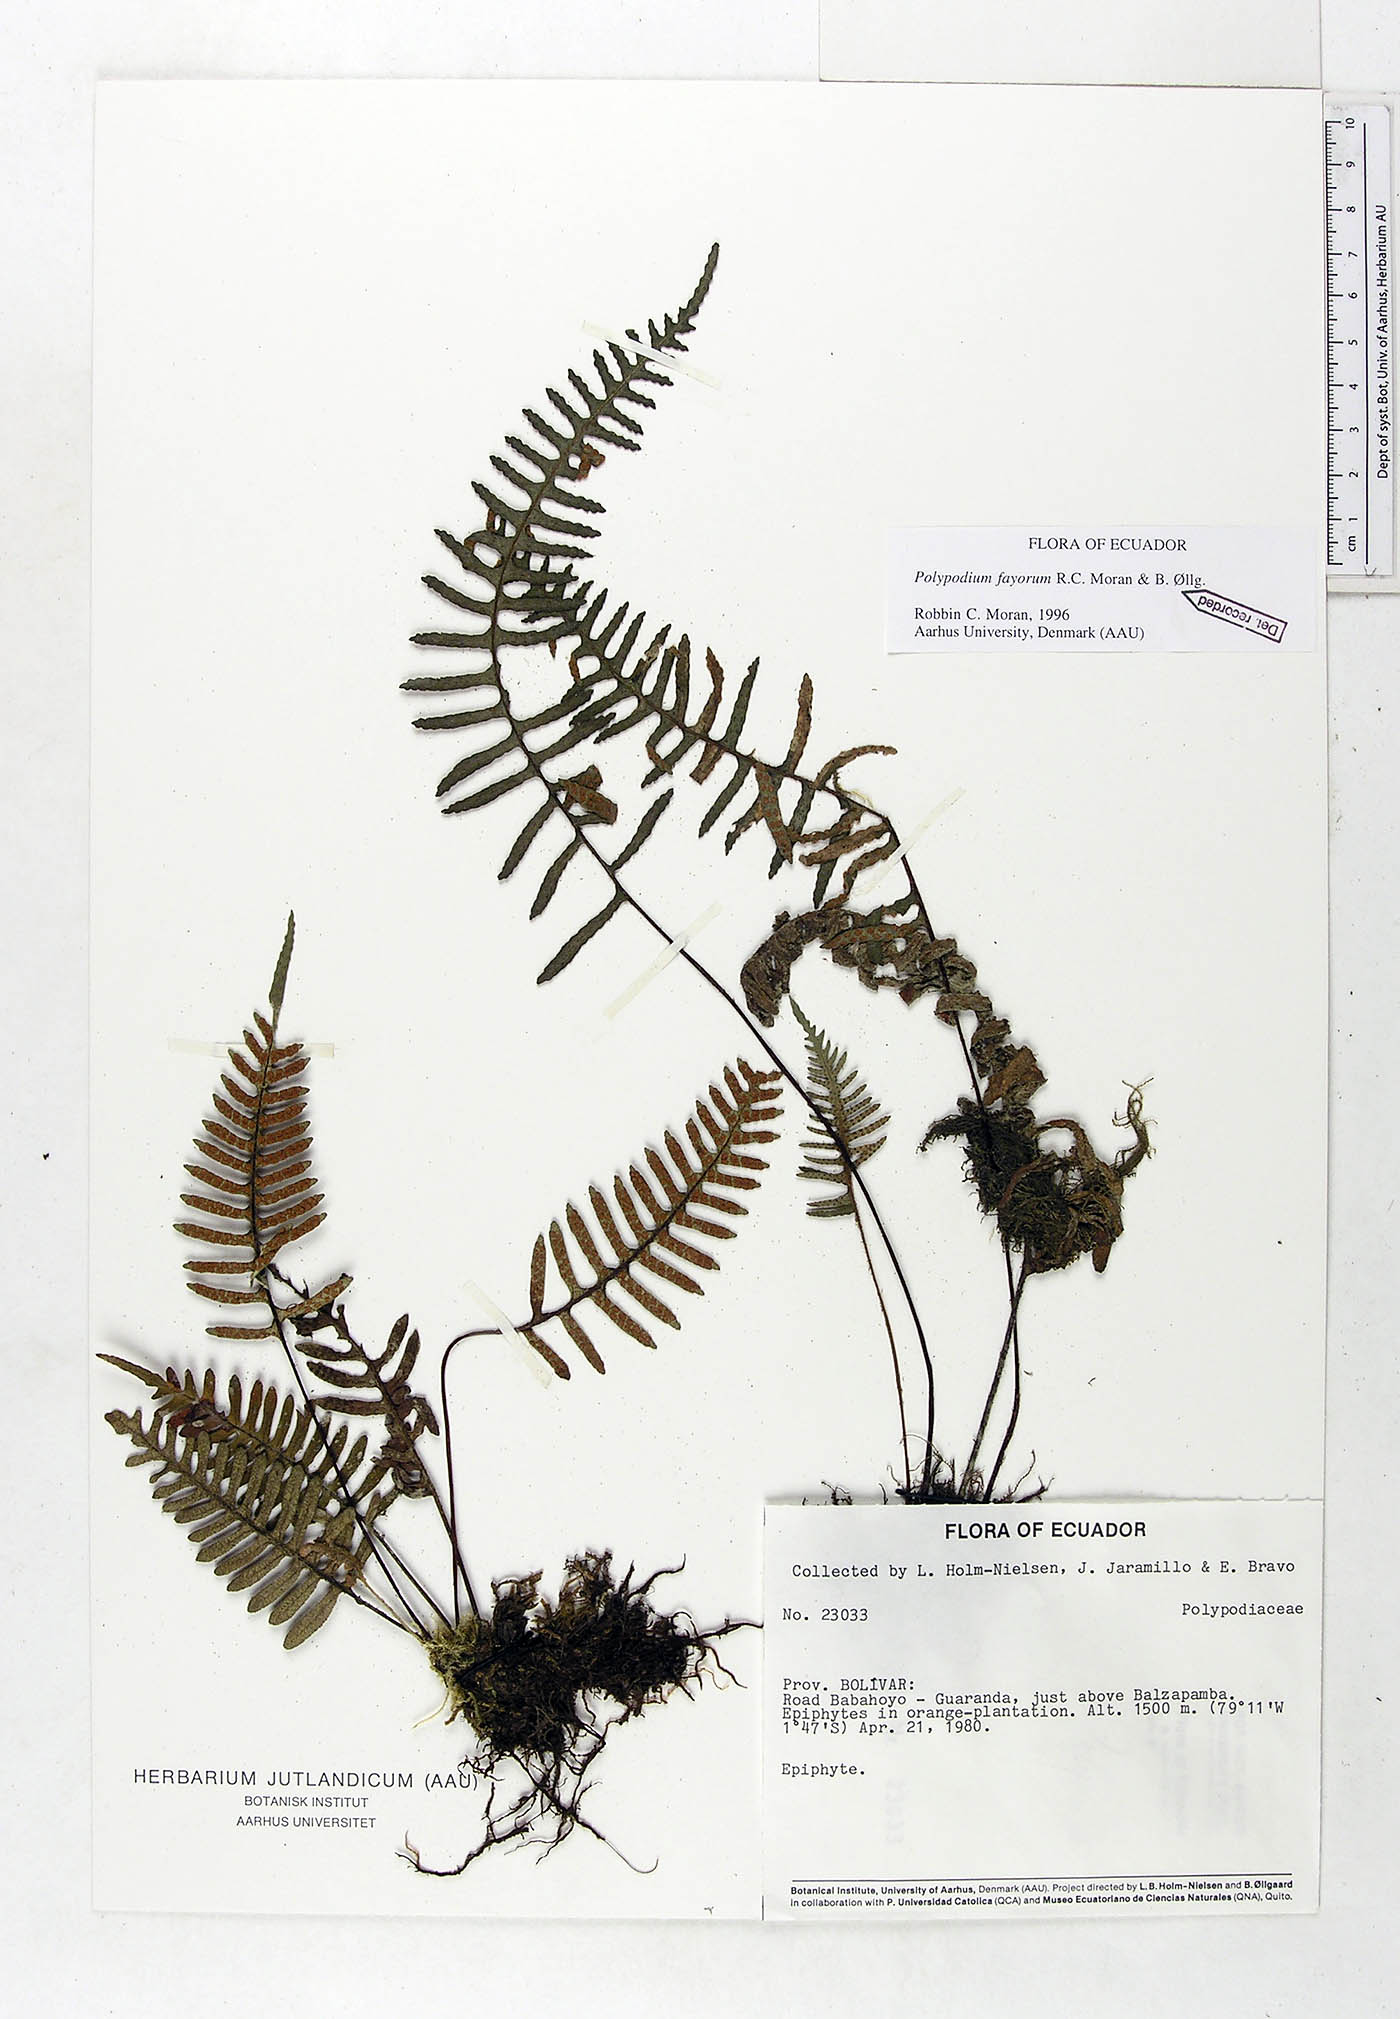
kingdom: Plantae
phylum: Tracheophyta
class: Polypodiopsida
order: Polypodiales
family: Polypodiaceae
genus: Pleopeltis
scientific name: Pleopeltis fayorum
